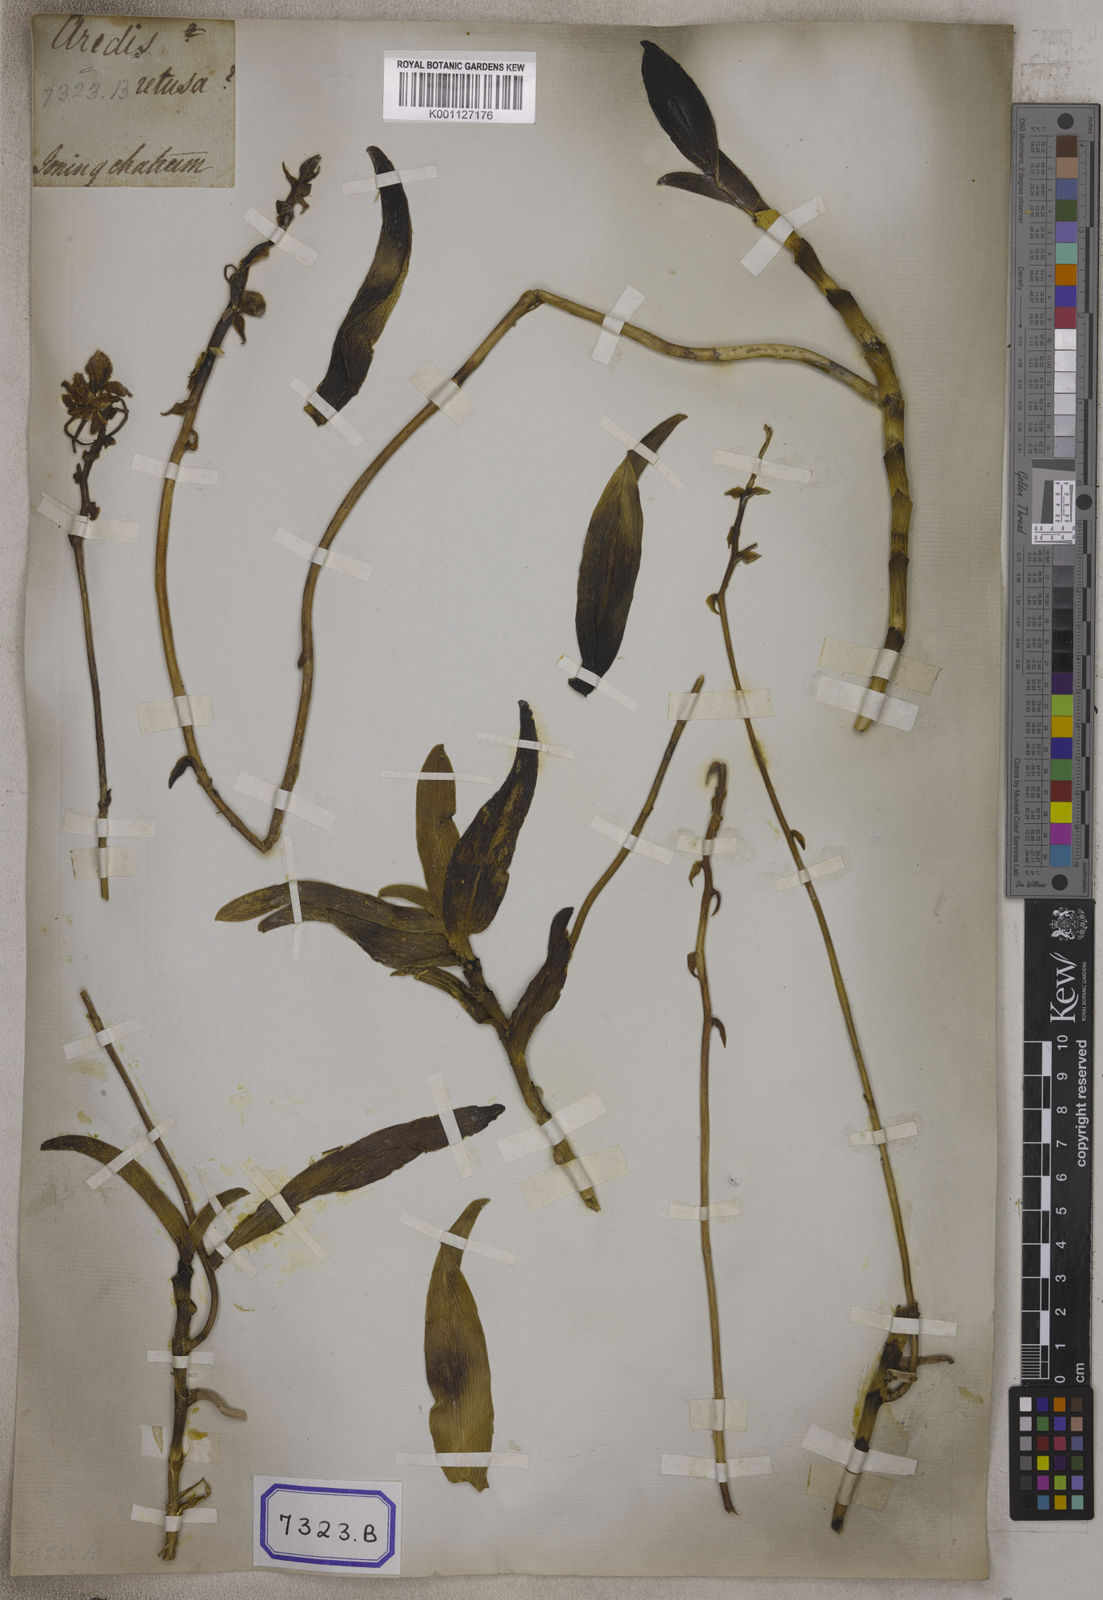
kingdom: Plantae
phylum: Tracheophyta
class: Liliopsida
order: Asparagales
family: Orchidaceae
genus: Taprobanea
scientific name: Taprobanea spathulata
